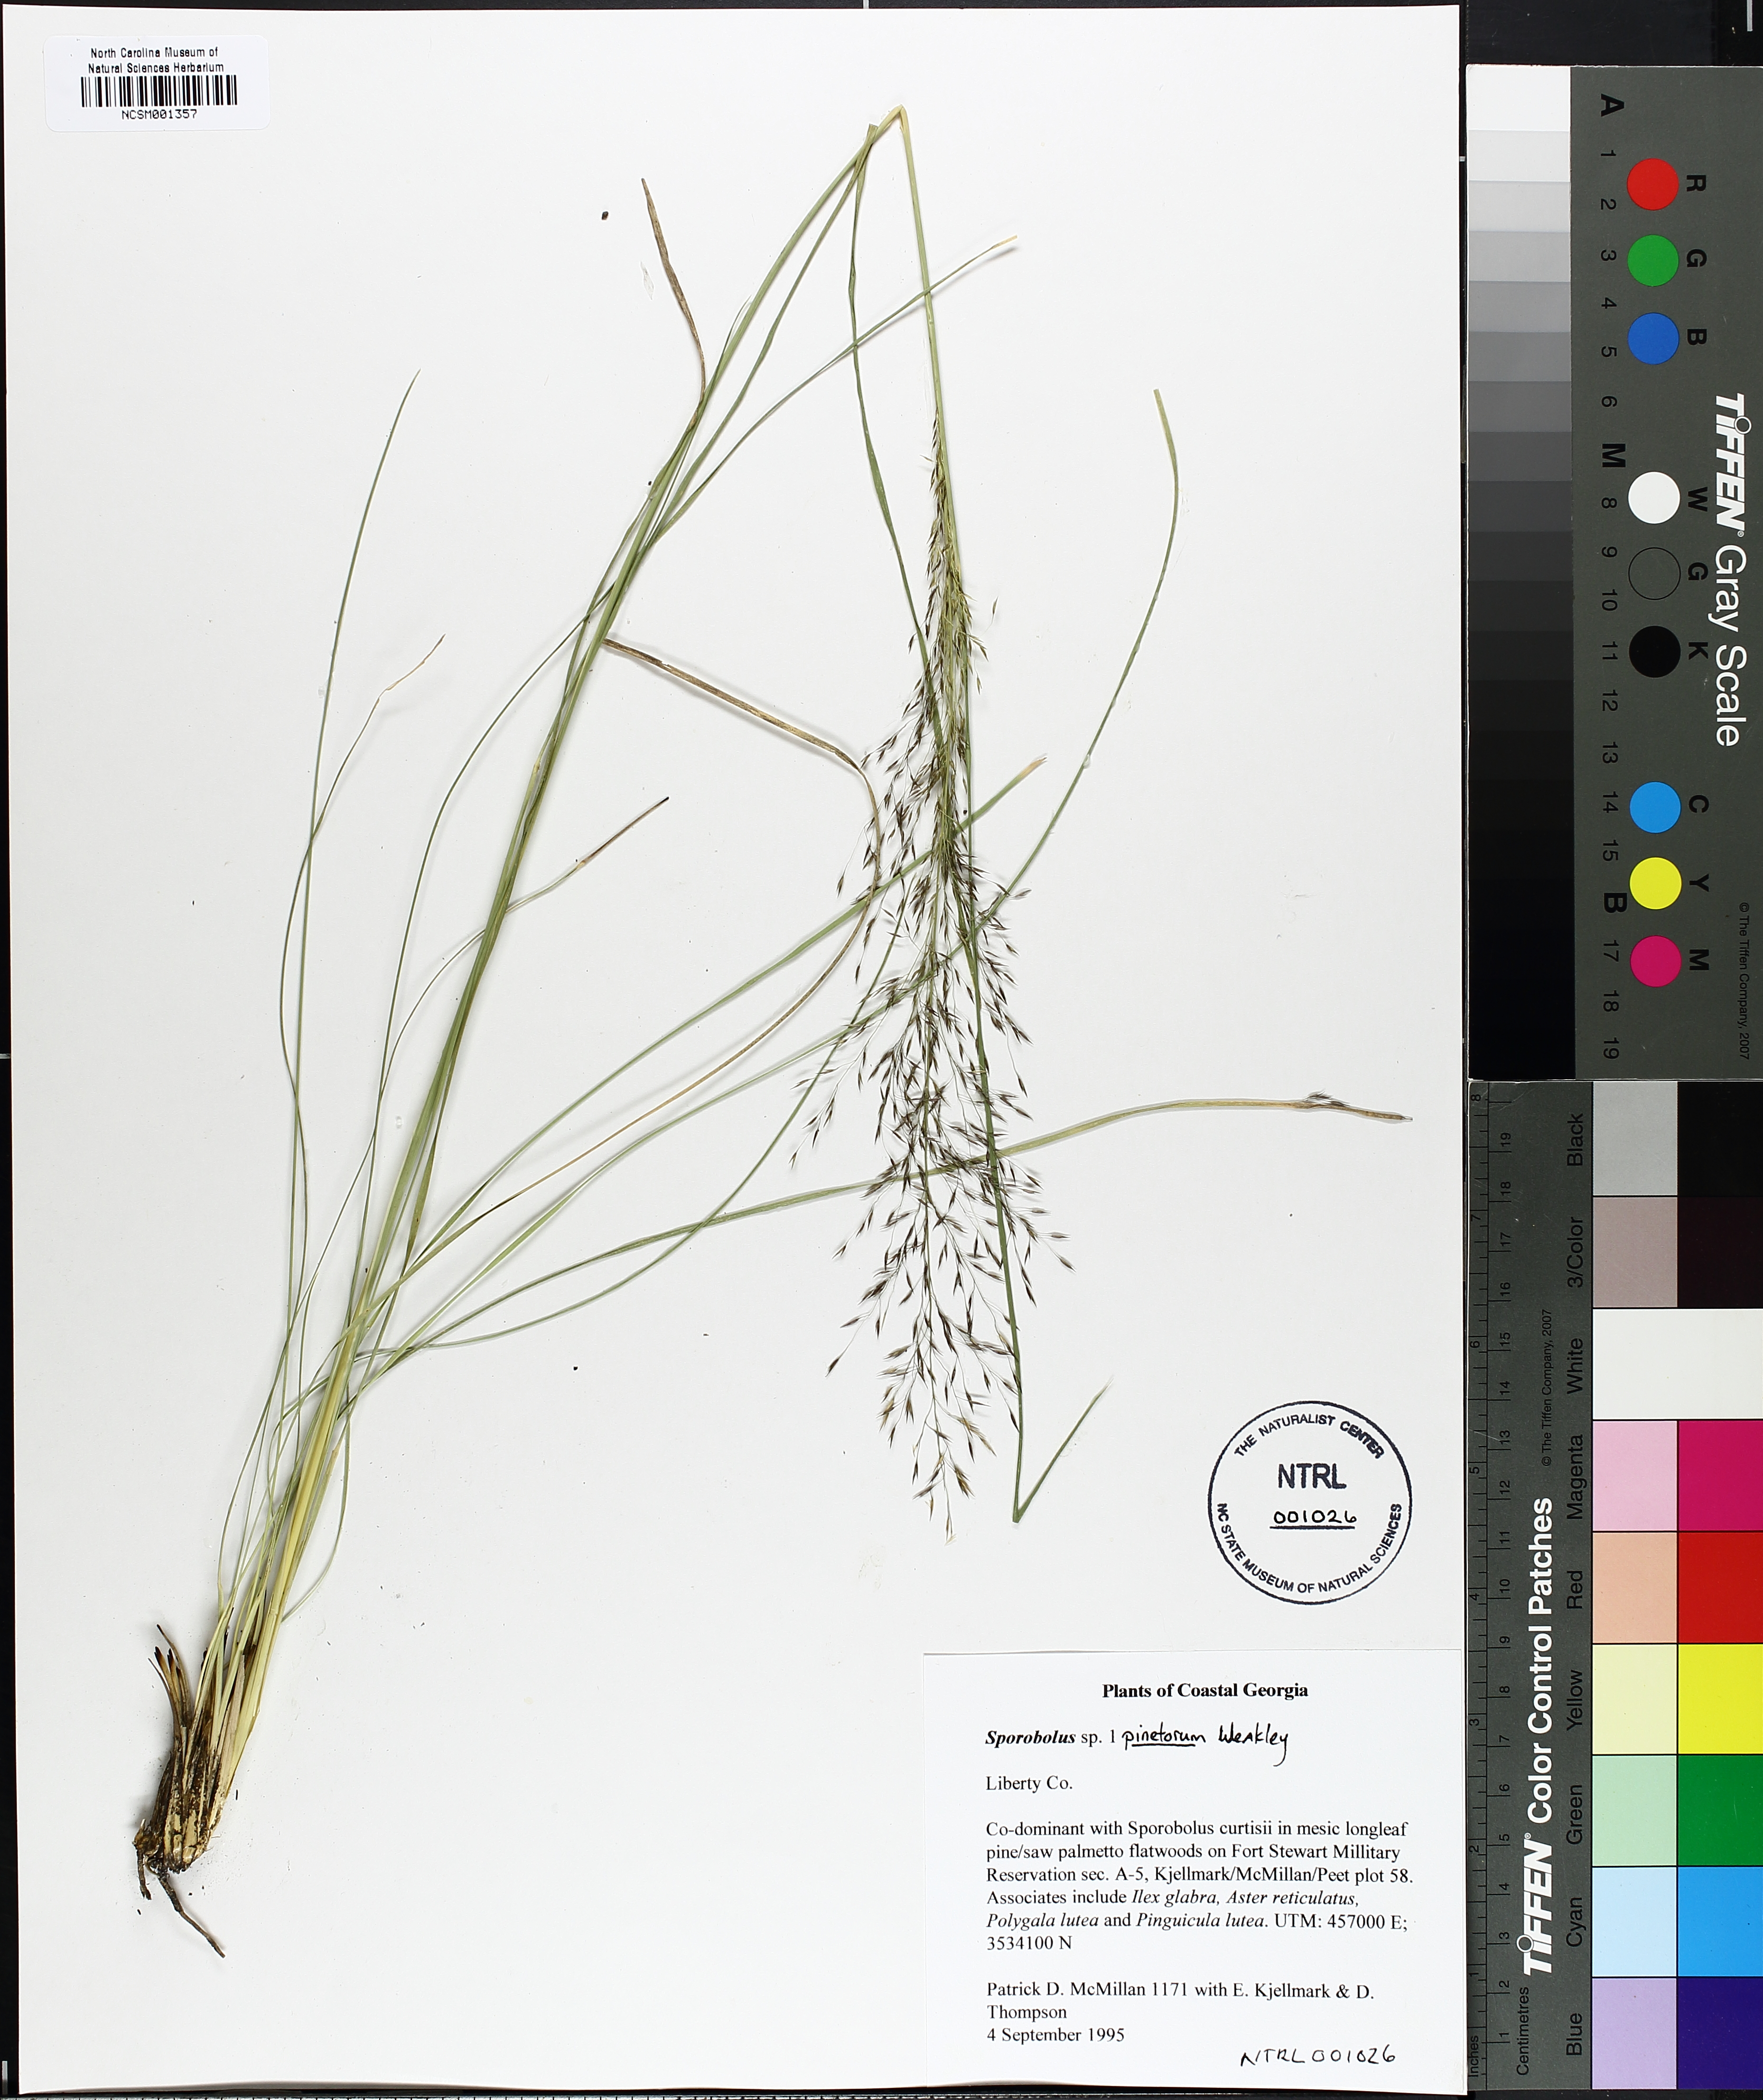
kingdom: Plantae
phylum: Tracheophyta
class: Liliopsida
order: Poales
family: Poaceae
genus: Sporobolus
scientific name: Sporobolus pinetorum
